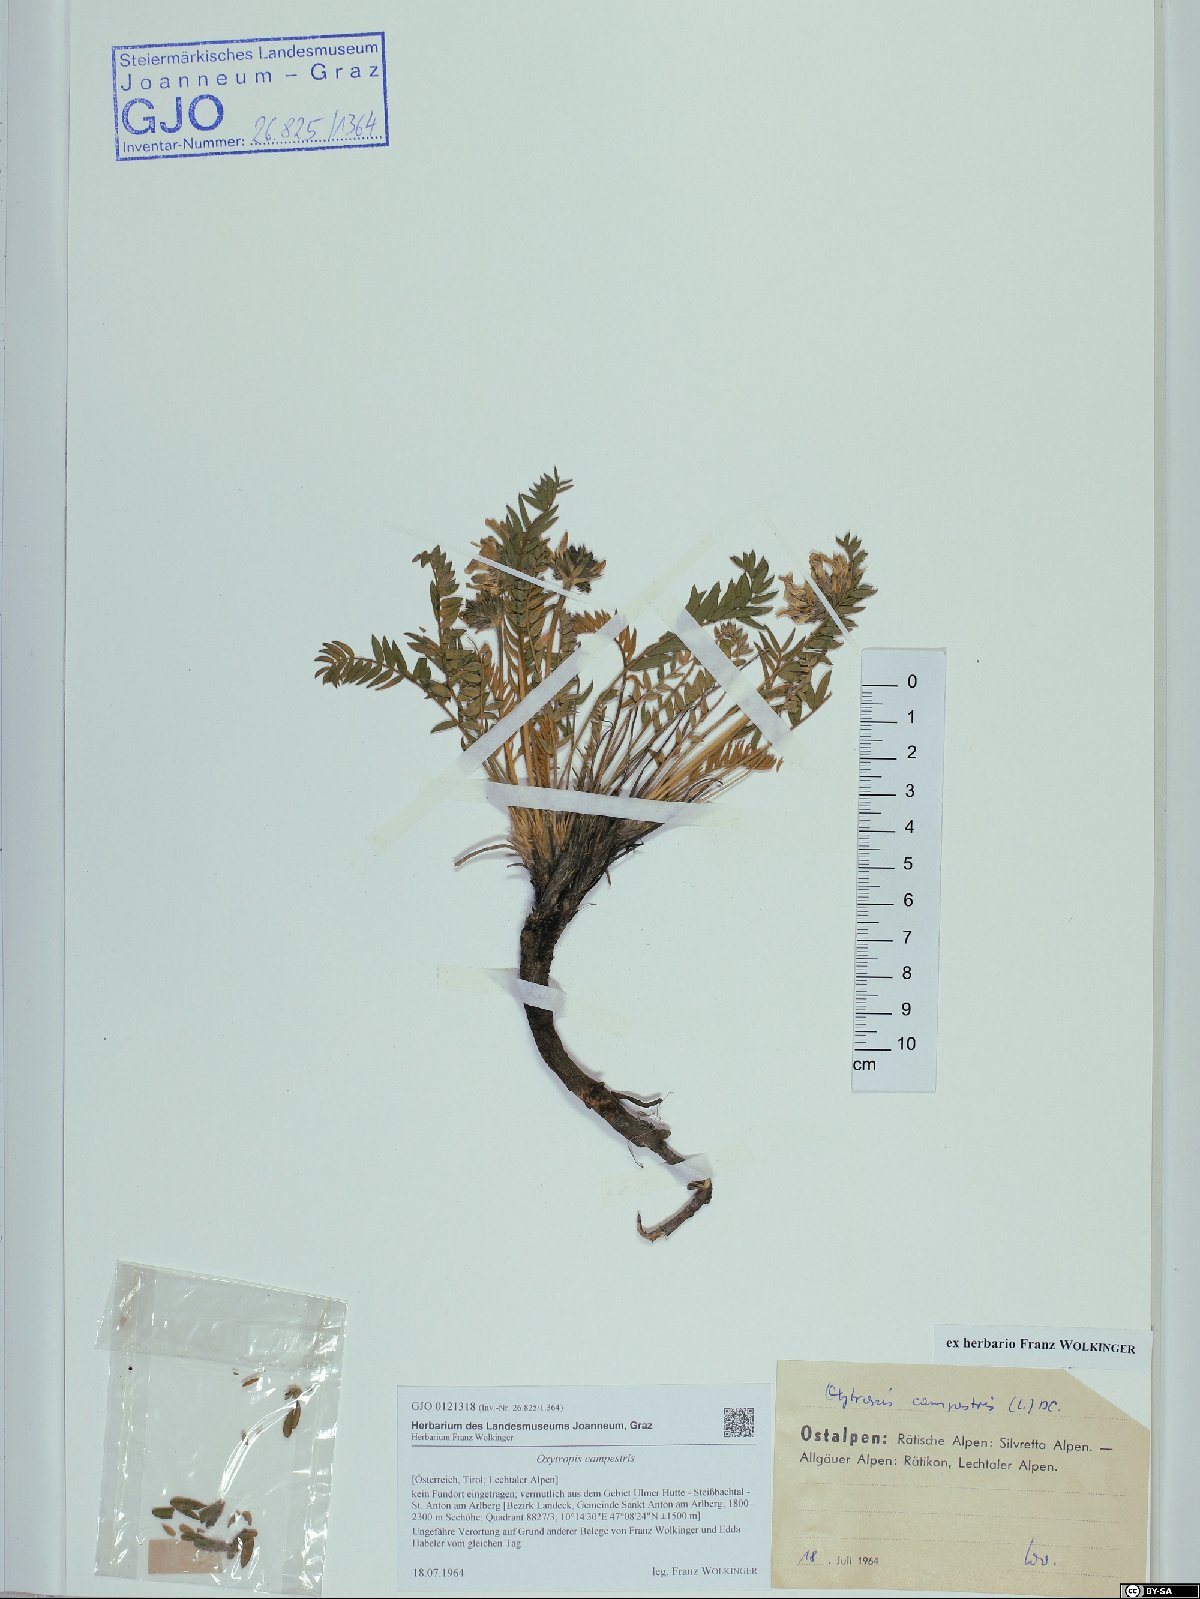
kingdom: Plantae
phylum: Tracheophyta
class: Magnoliopsida
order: Fabales
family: Fabaceae
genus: Oxytropis
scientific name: Oxytropis campestris
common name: Field locoweed
